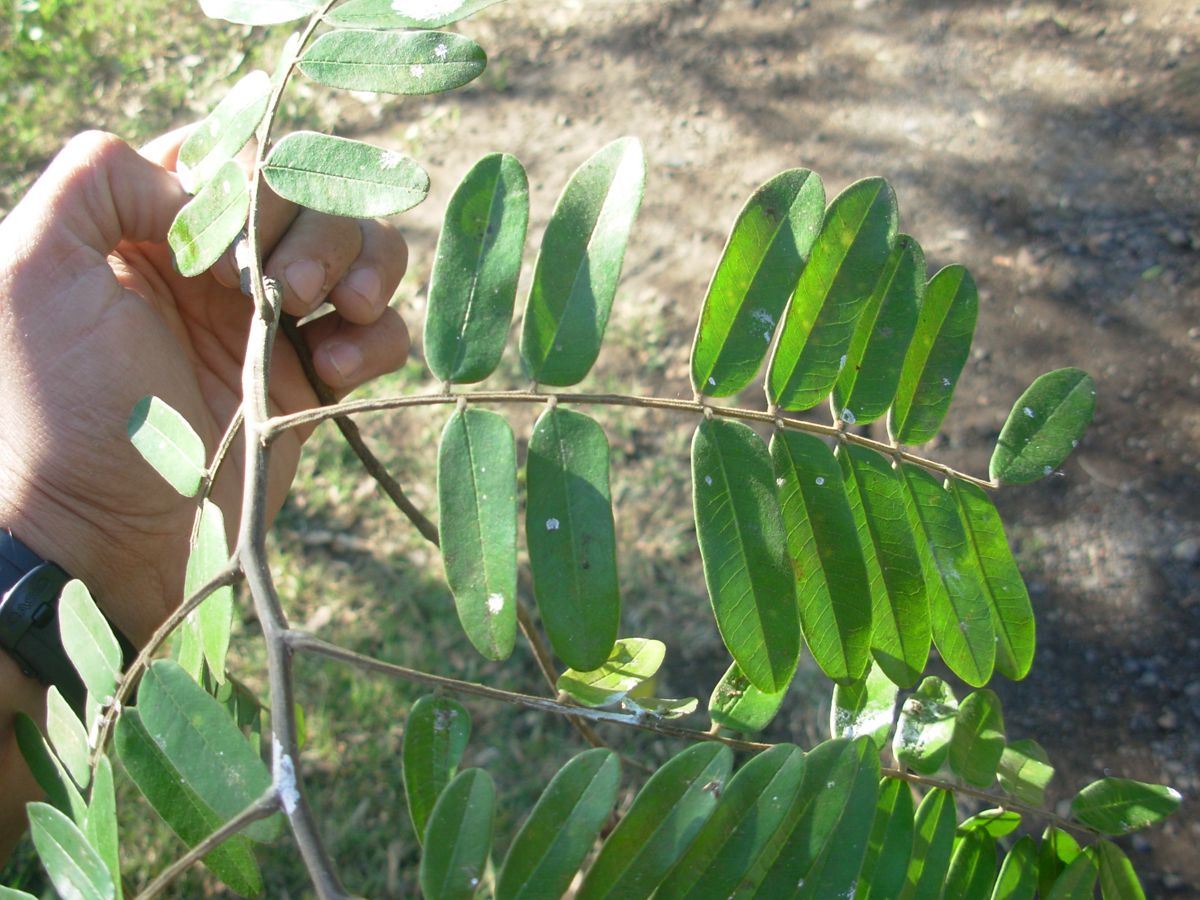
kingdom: Plantae
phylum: Tracheophyta
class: Magnoliopsida
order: Fabales
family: Fabaceae
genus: Cassia
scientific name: Cassia moschata
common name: Bronze shower tree
